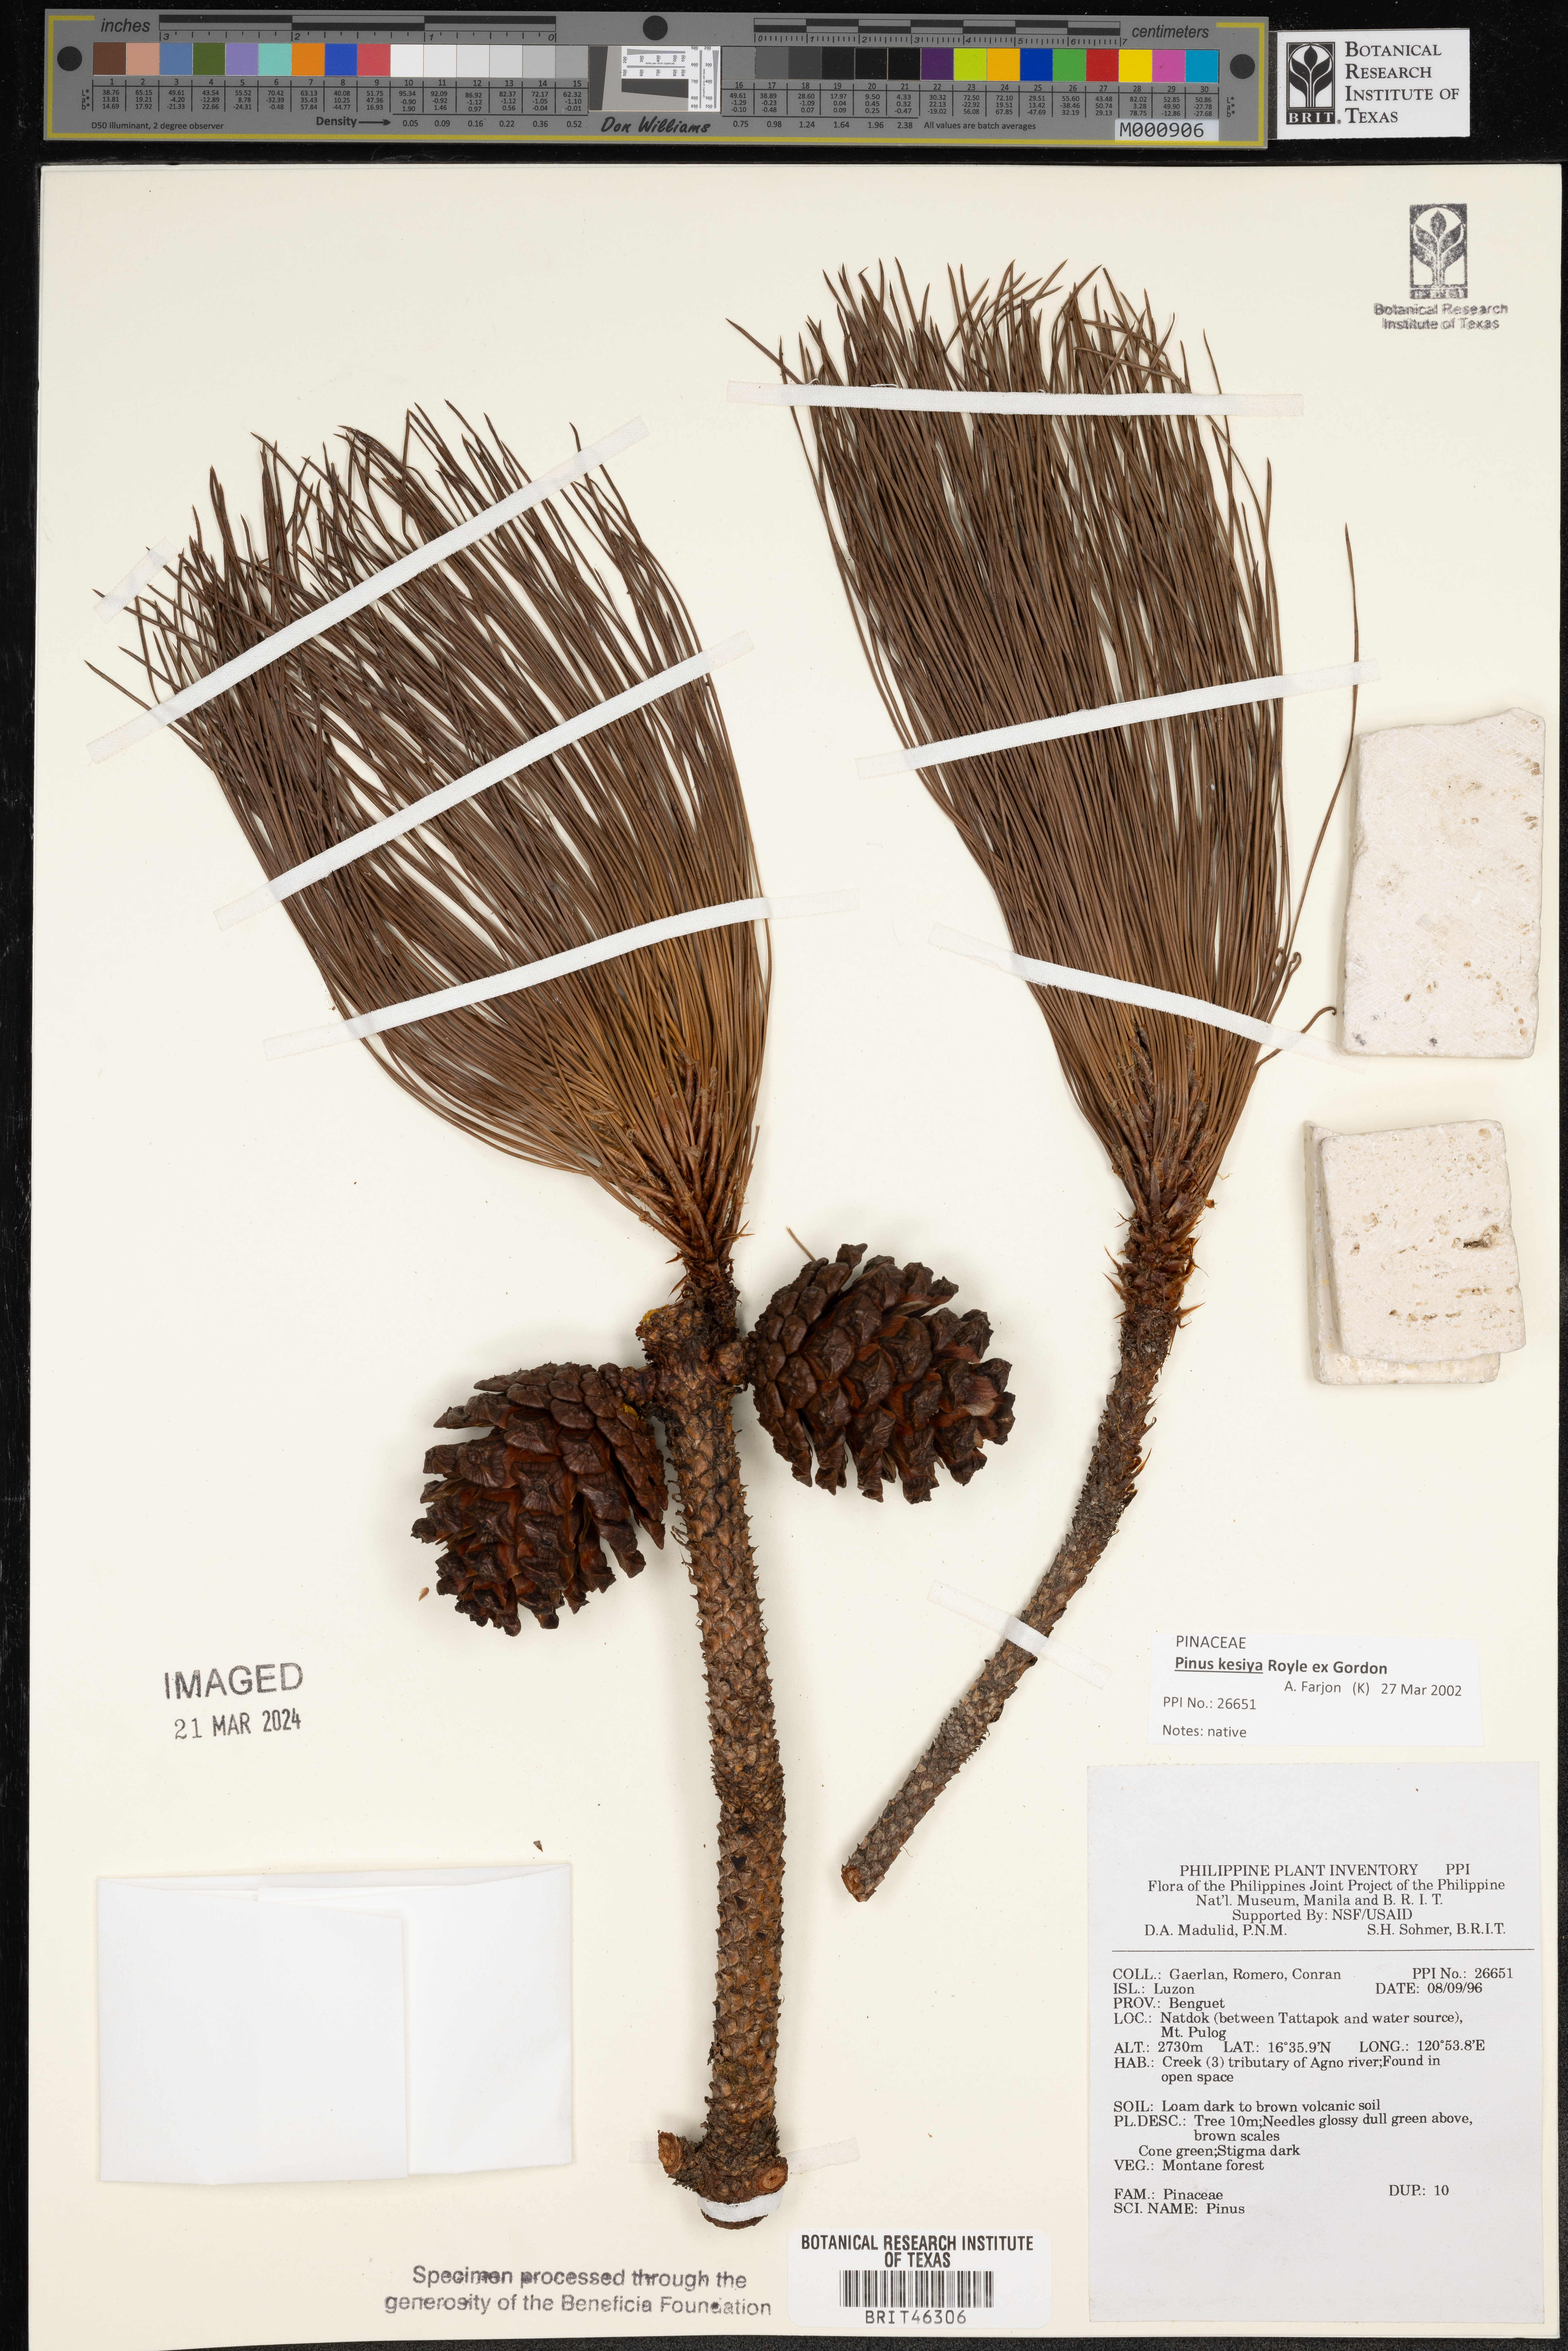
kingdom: Plantae
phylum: Tracheophyta
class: Pinopsida
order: Pinales
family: Pinaceae
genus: Pinus
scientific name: Pinus
